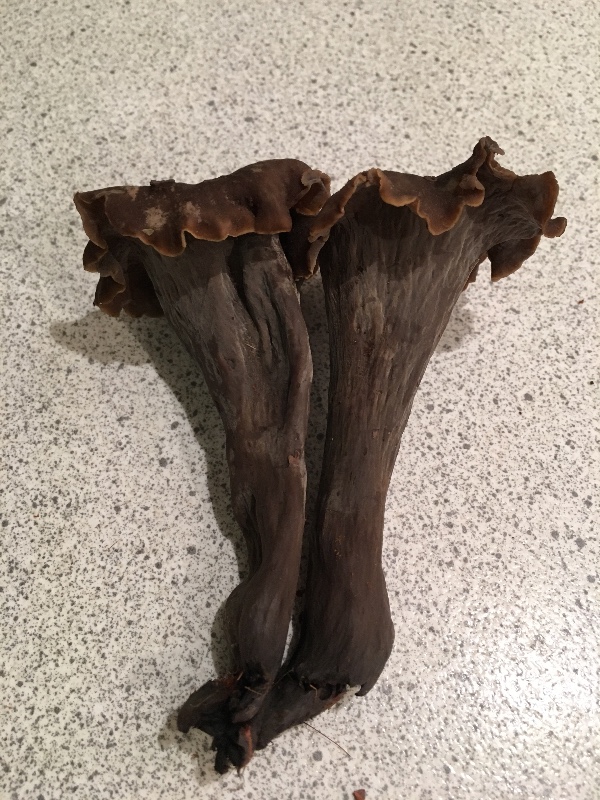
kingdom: Fungi
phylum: Basidiomycota
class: Agaricomycetes
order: Cantharellales
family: Hydnaceae
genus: Craterellus
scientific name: Craterellus cornucopioides
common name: trompetsvamp
